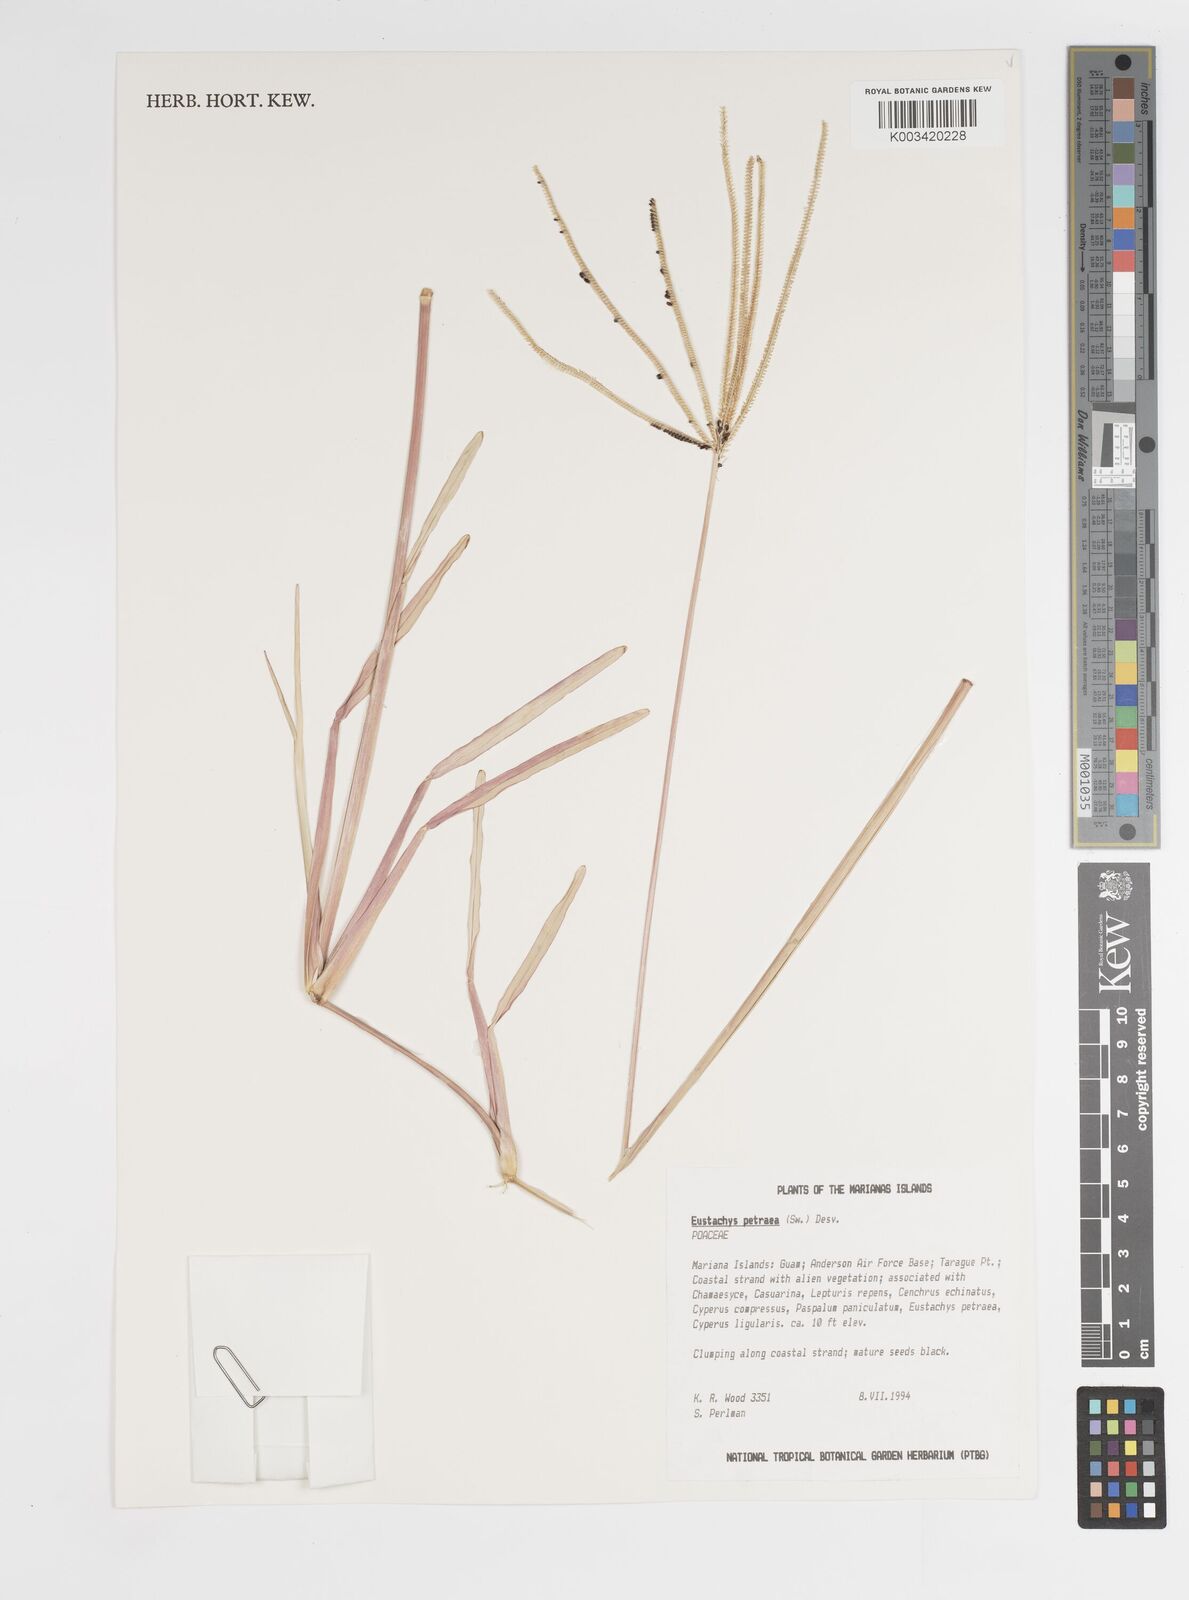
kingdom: Plantae
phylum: Tracheophyta
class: Liliopsida
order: Poales
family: Poaceae
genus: Eustachys
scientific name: Eustachys petraea
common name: Pinewoods fingergrass
